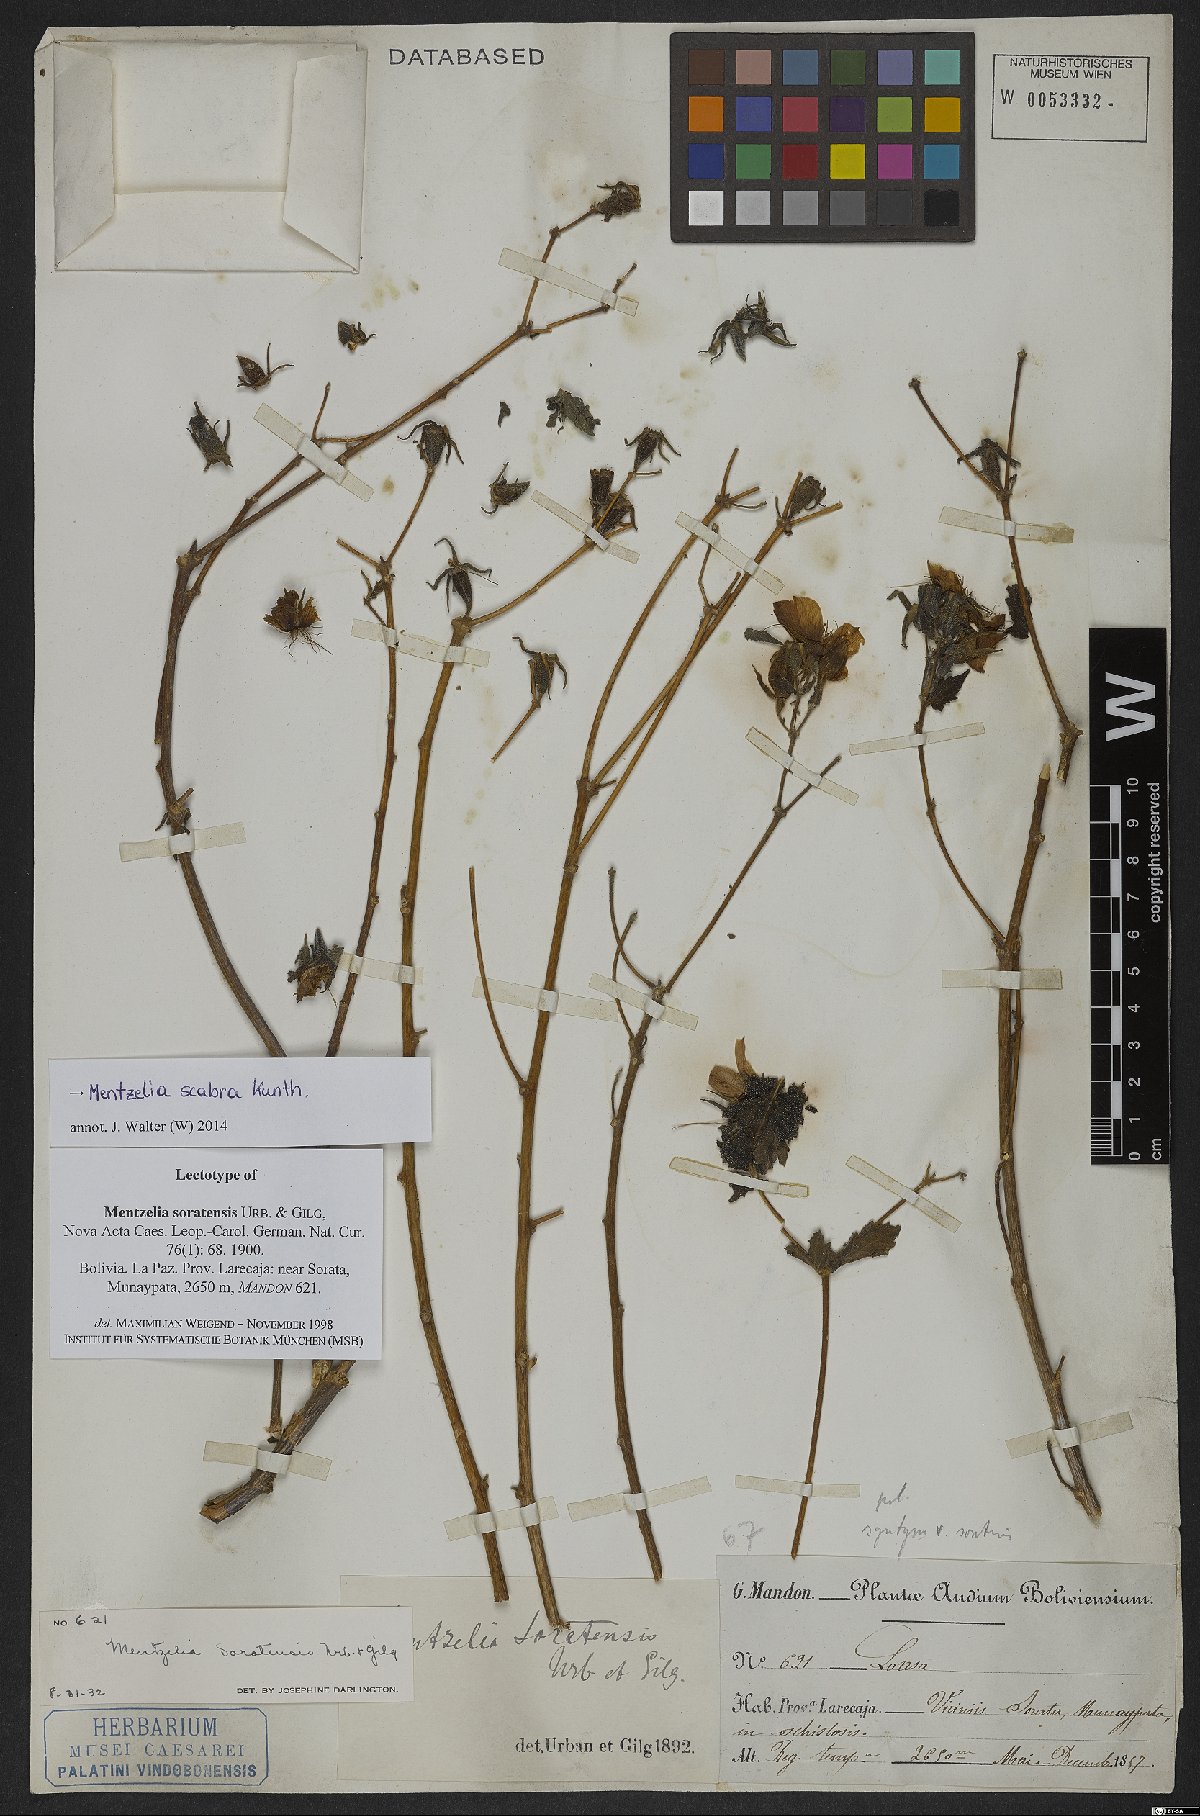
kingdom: Plantae
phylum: Tracheophyta
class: Magnoliopsida
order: Cornales
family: Loasaceae
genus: Mentzelia
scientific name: Mentzelia scabra
